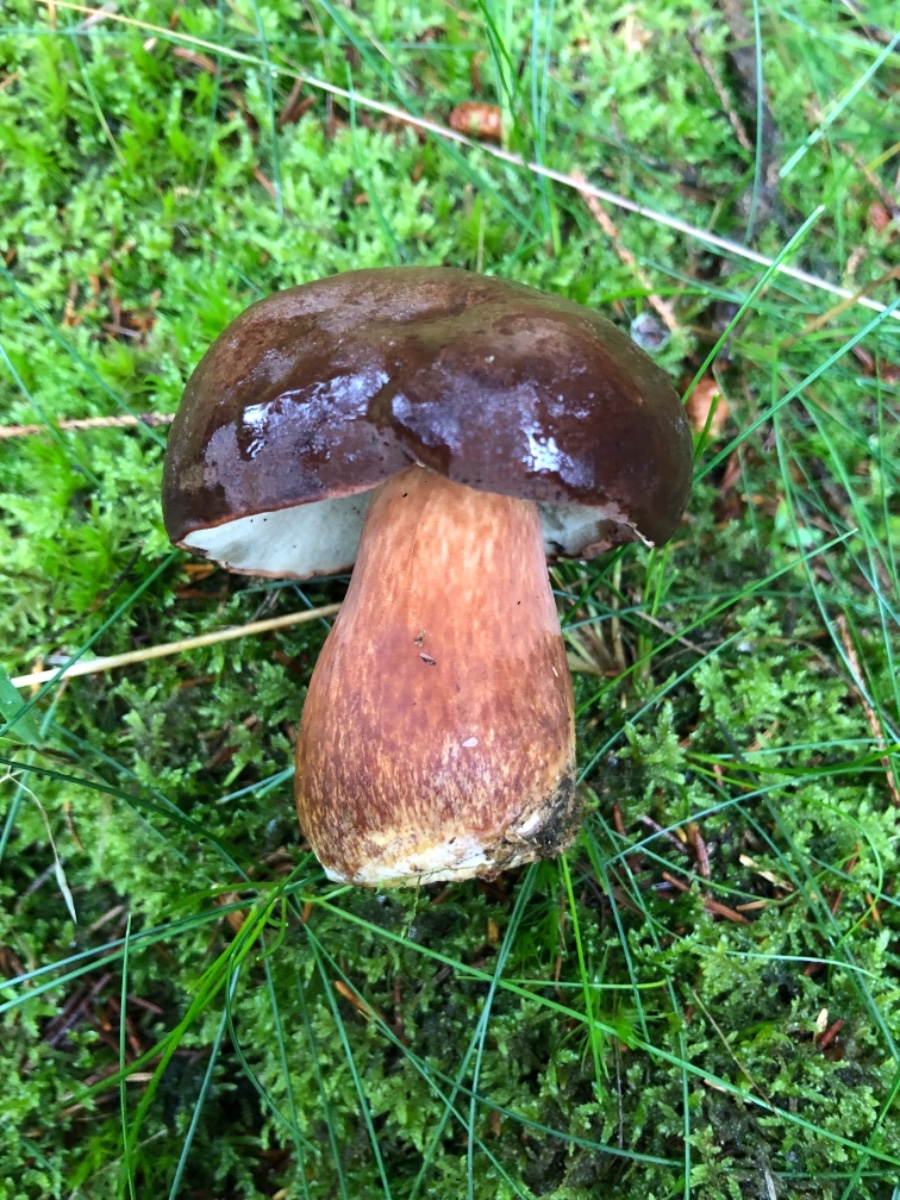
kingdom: Fungi
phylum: Basidiomycota
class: Agaricomycetes
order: Boletales
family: Boletaceae
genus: Imleria
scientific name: Imleria badia
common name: brunstokket rørhat
